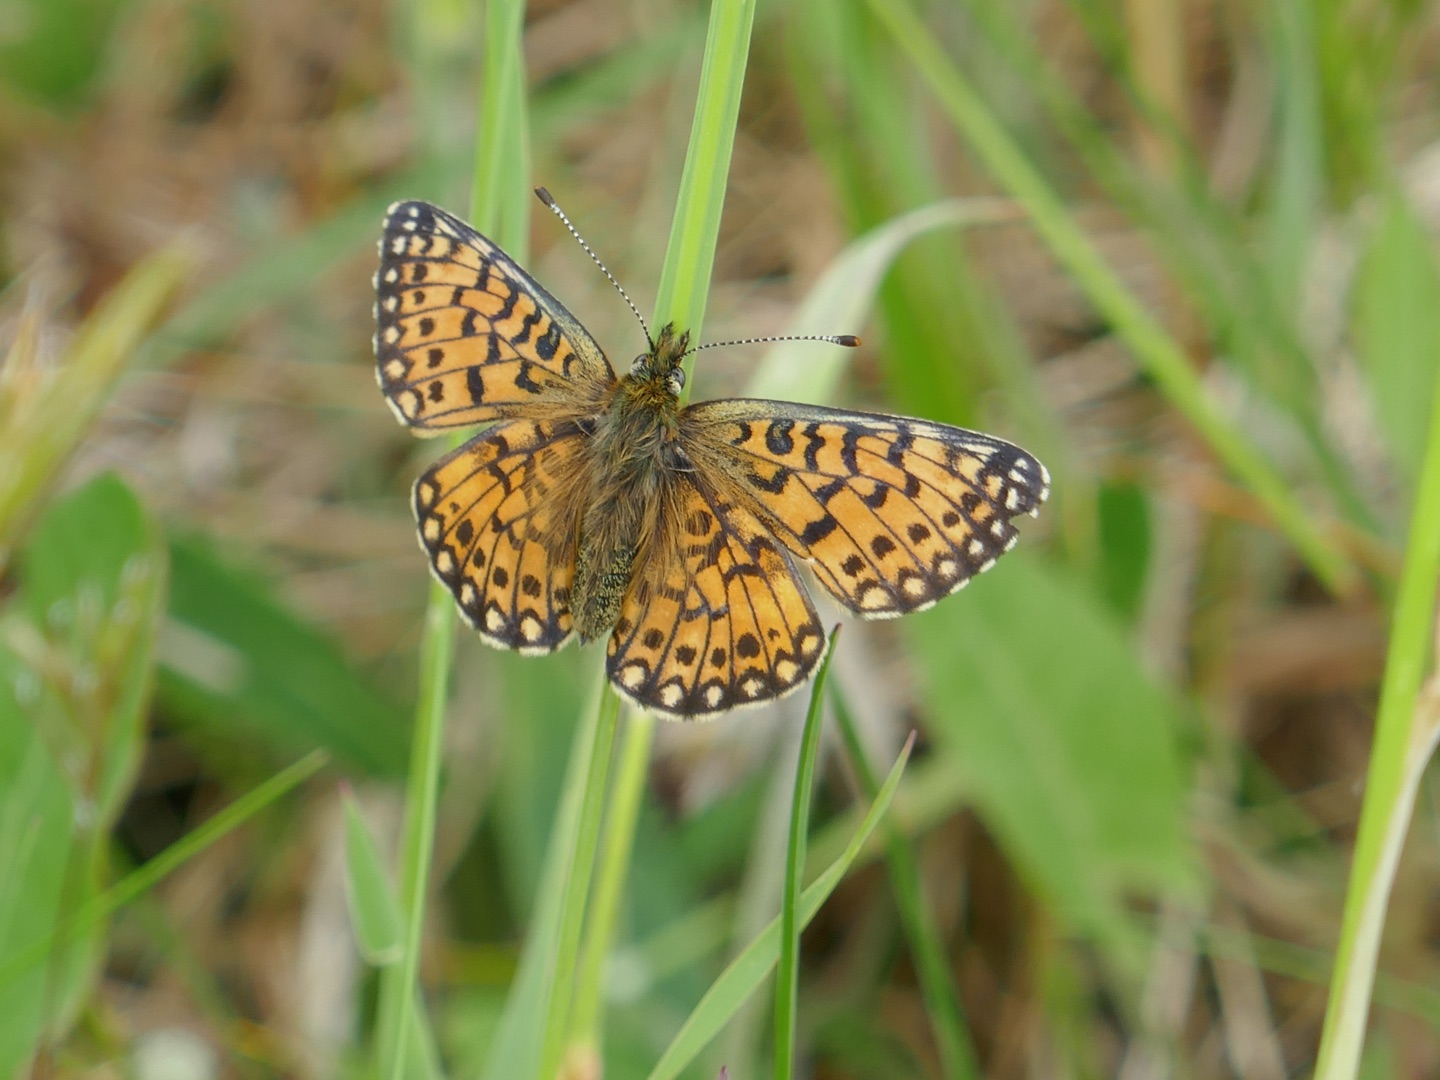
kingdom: Animalia
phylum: Arthropoda
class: Insecta
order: Lepidoptera
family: Nymphalidae
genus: Boloria
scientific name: Boloria selene
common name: Brunlig perlemorsommerfugl
